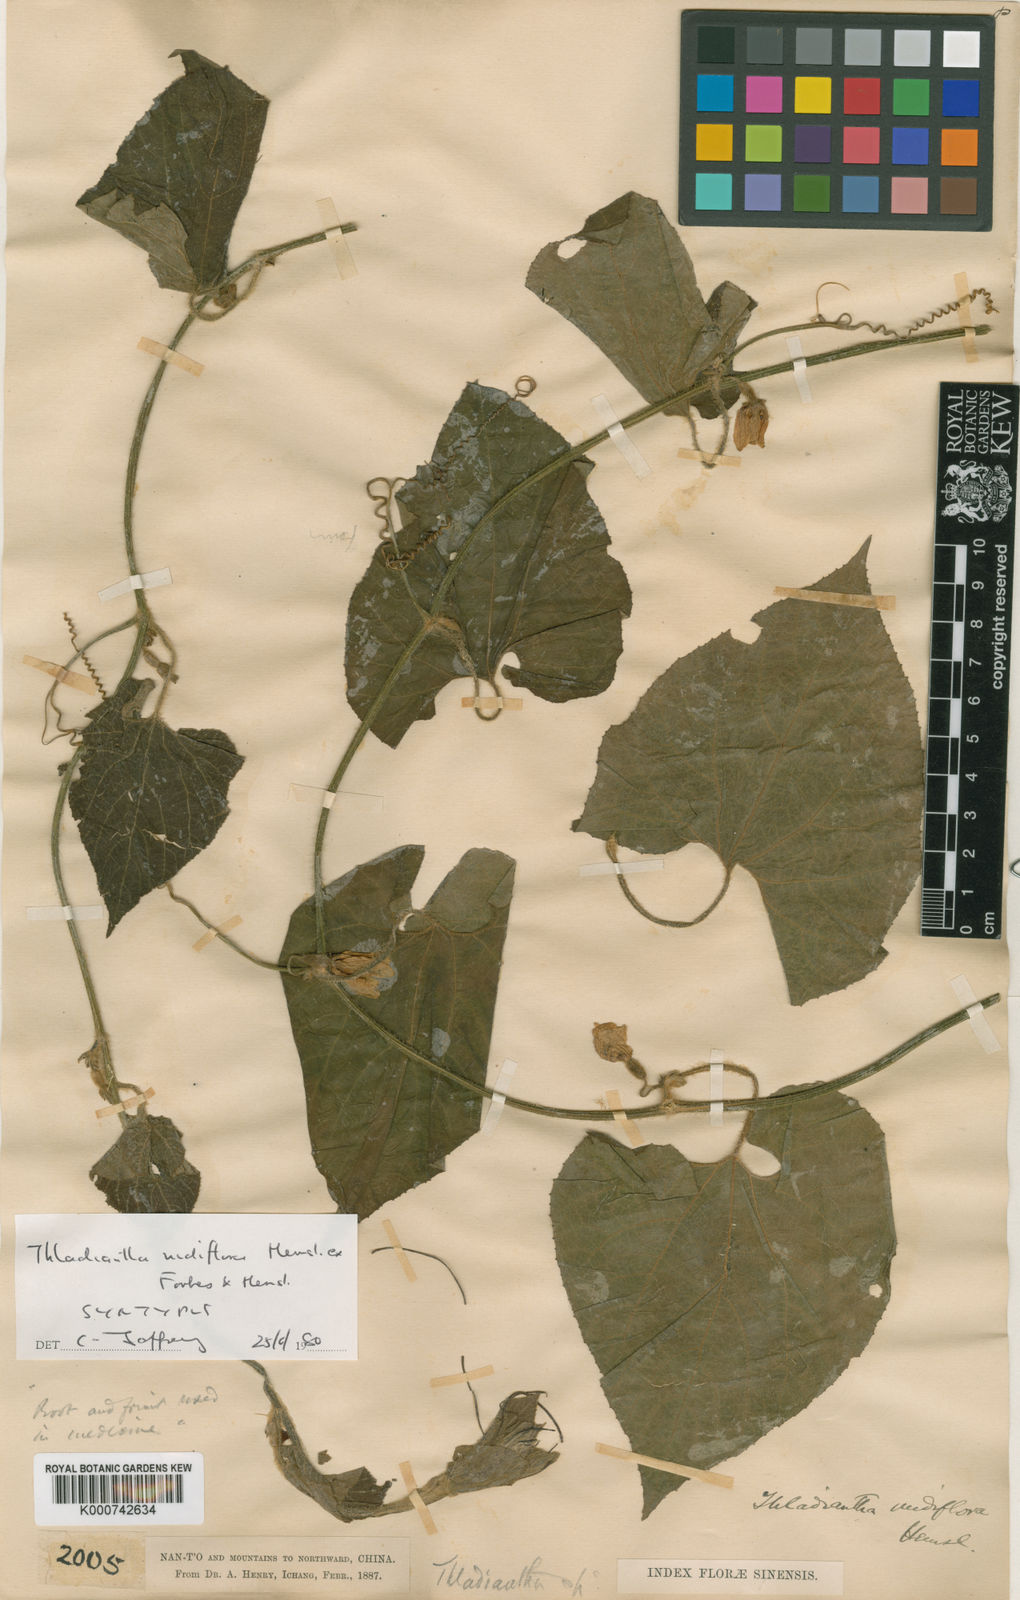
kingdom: Plantae
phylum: Tracheophyta
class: Magnoliopsida
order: Cucurbitales
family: Cucurbitaceae
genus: Thladiantha
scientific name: Thladiantha nudiflora
